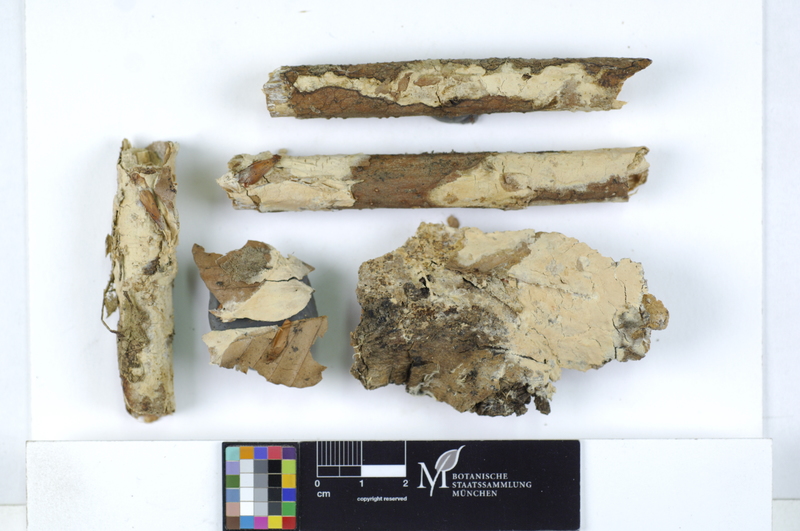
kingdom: Fungi
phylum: Basidiomycota
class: Agaricomycetes
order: Polyporales
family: Irpicaceae
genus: Crystallicutis
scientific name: Crystallicutis serpens
